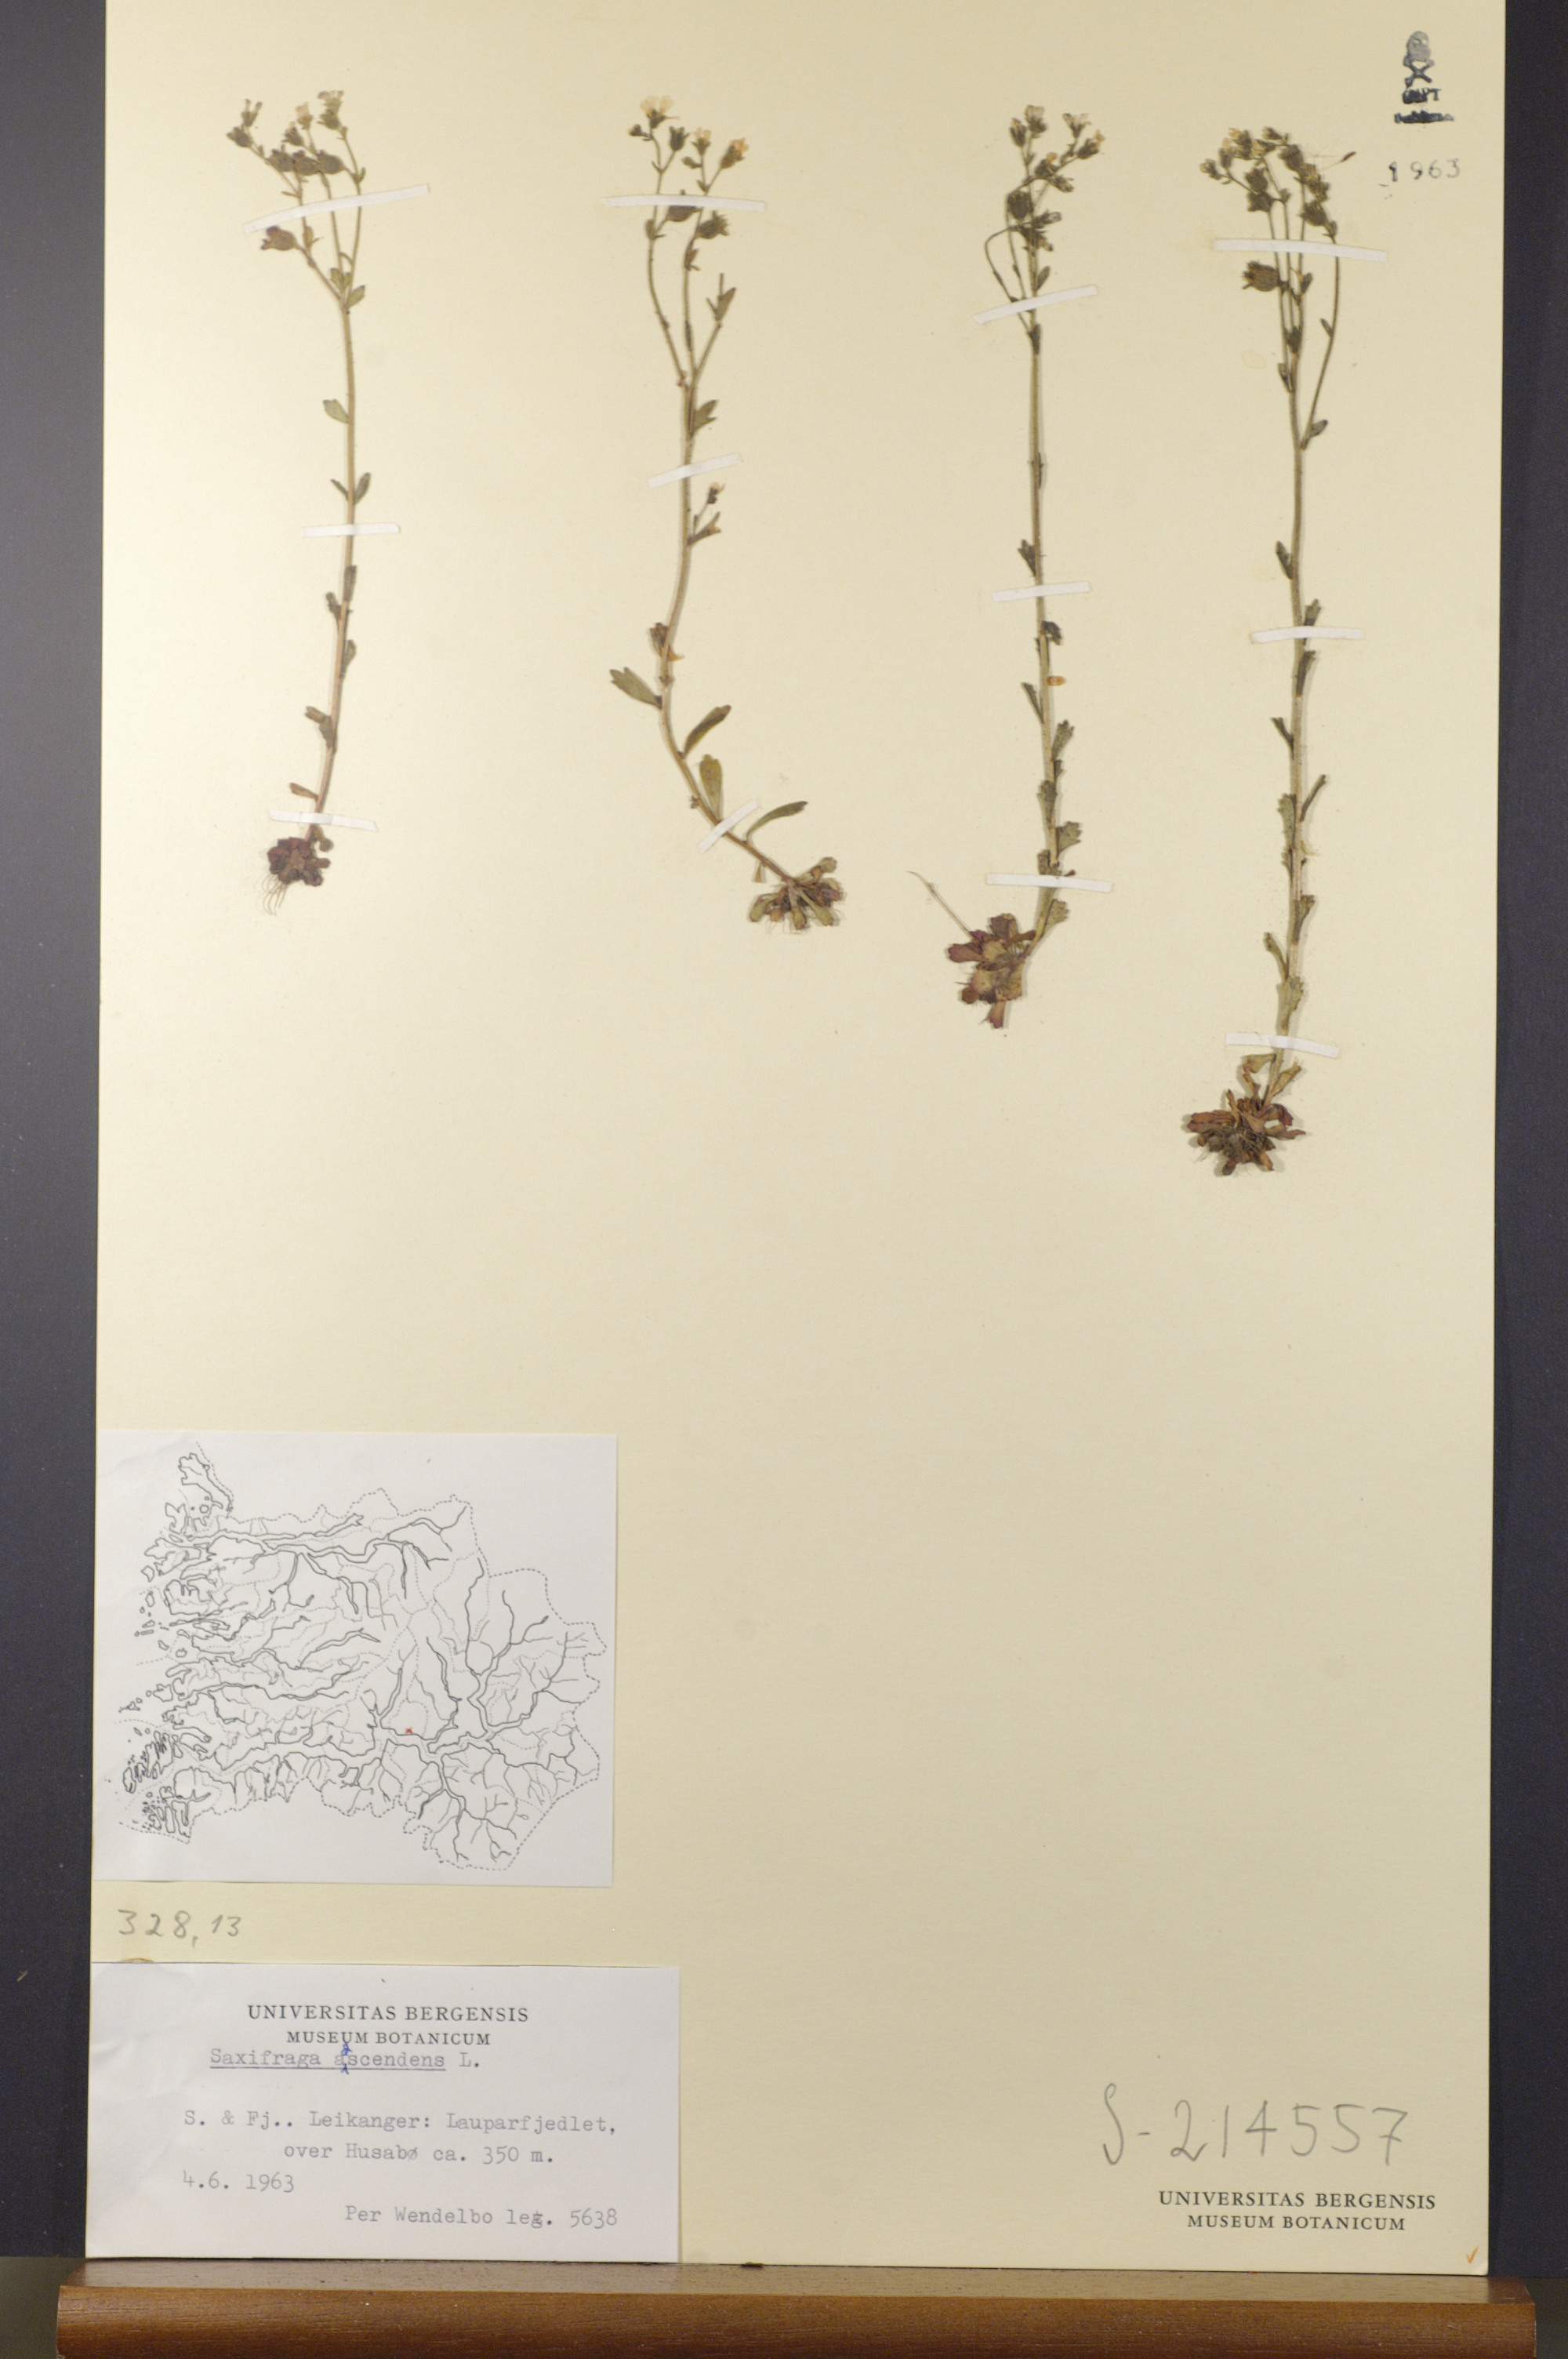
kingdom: Plantae
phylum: Tracheophyta
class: Magnoliopsida
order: Saxifragales
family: Saxifragaceae
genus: Saxifraga
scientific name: Saxifraga adscendens
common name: Ascending saxifrage
